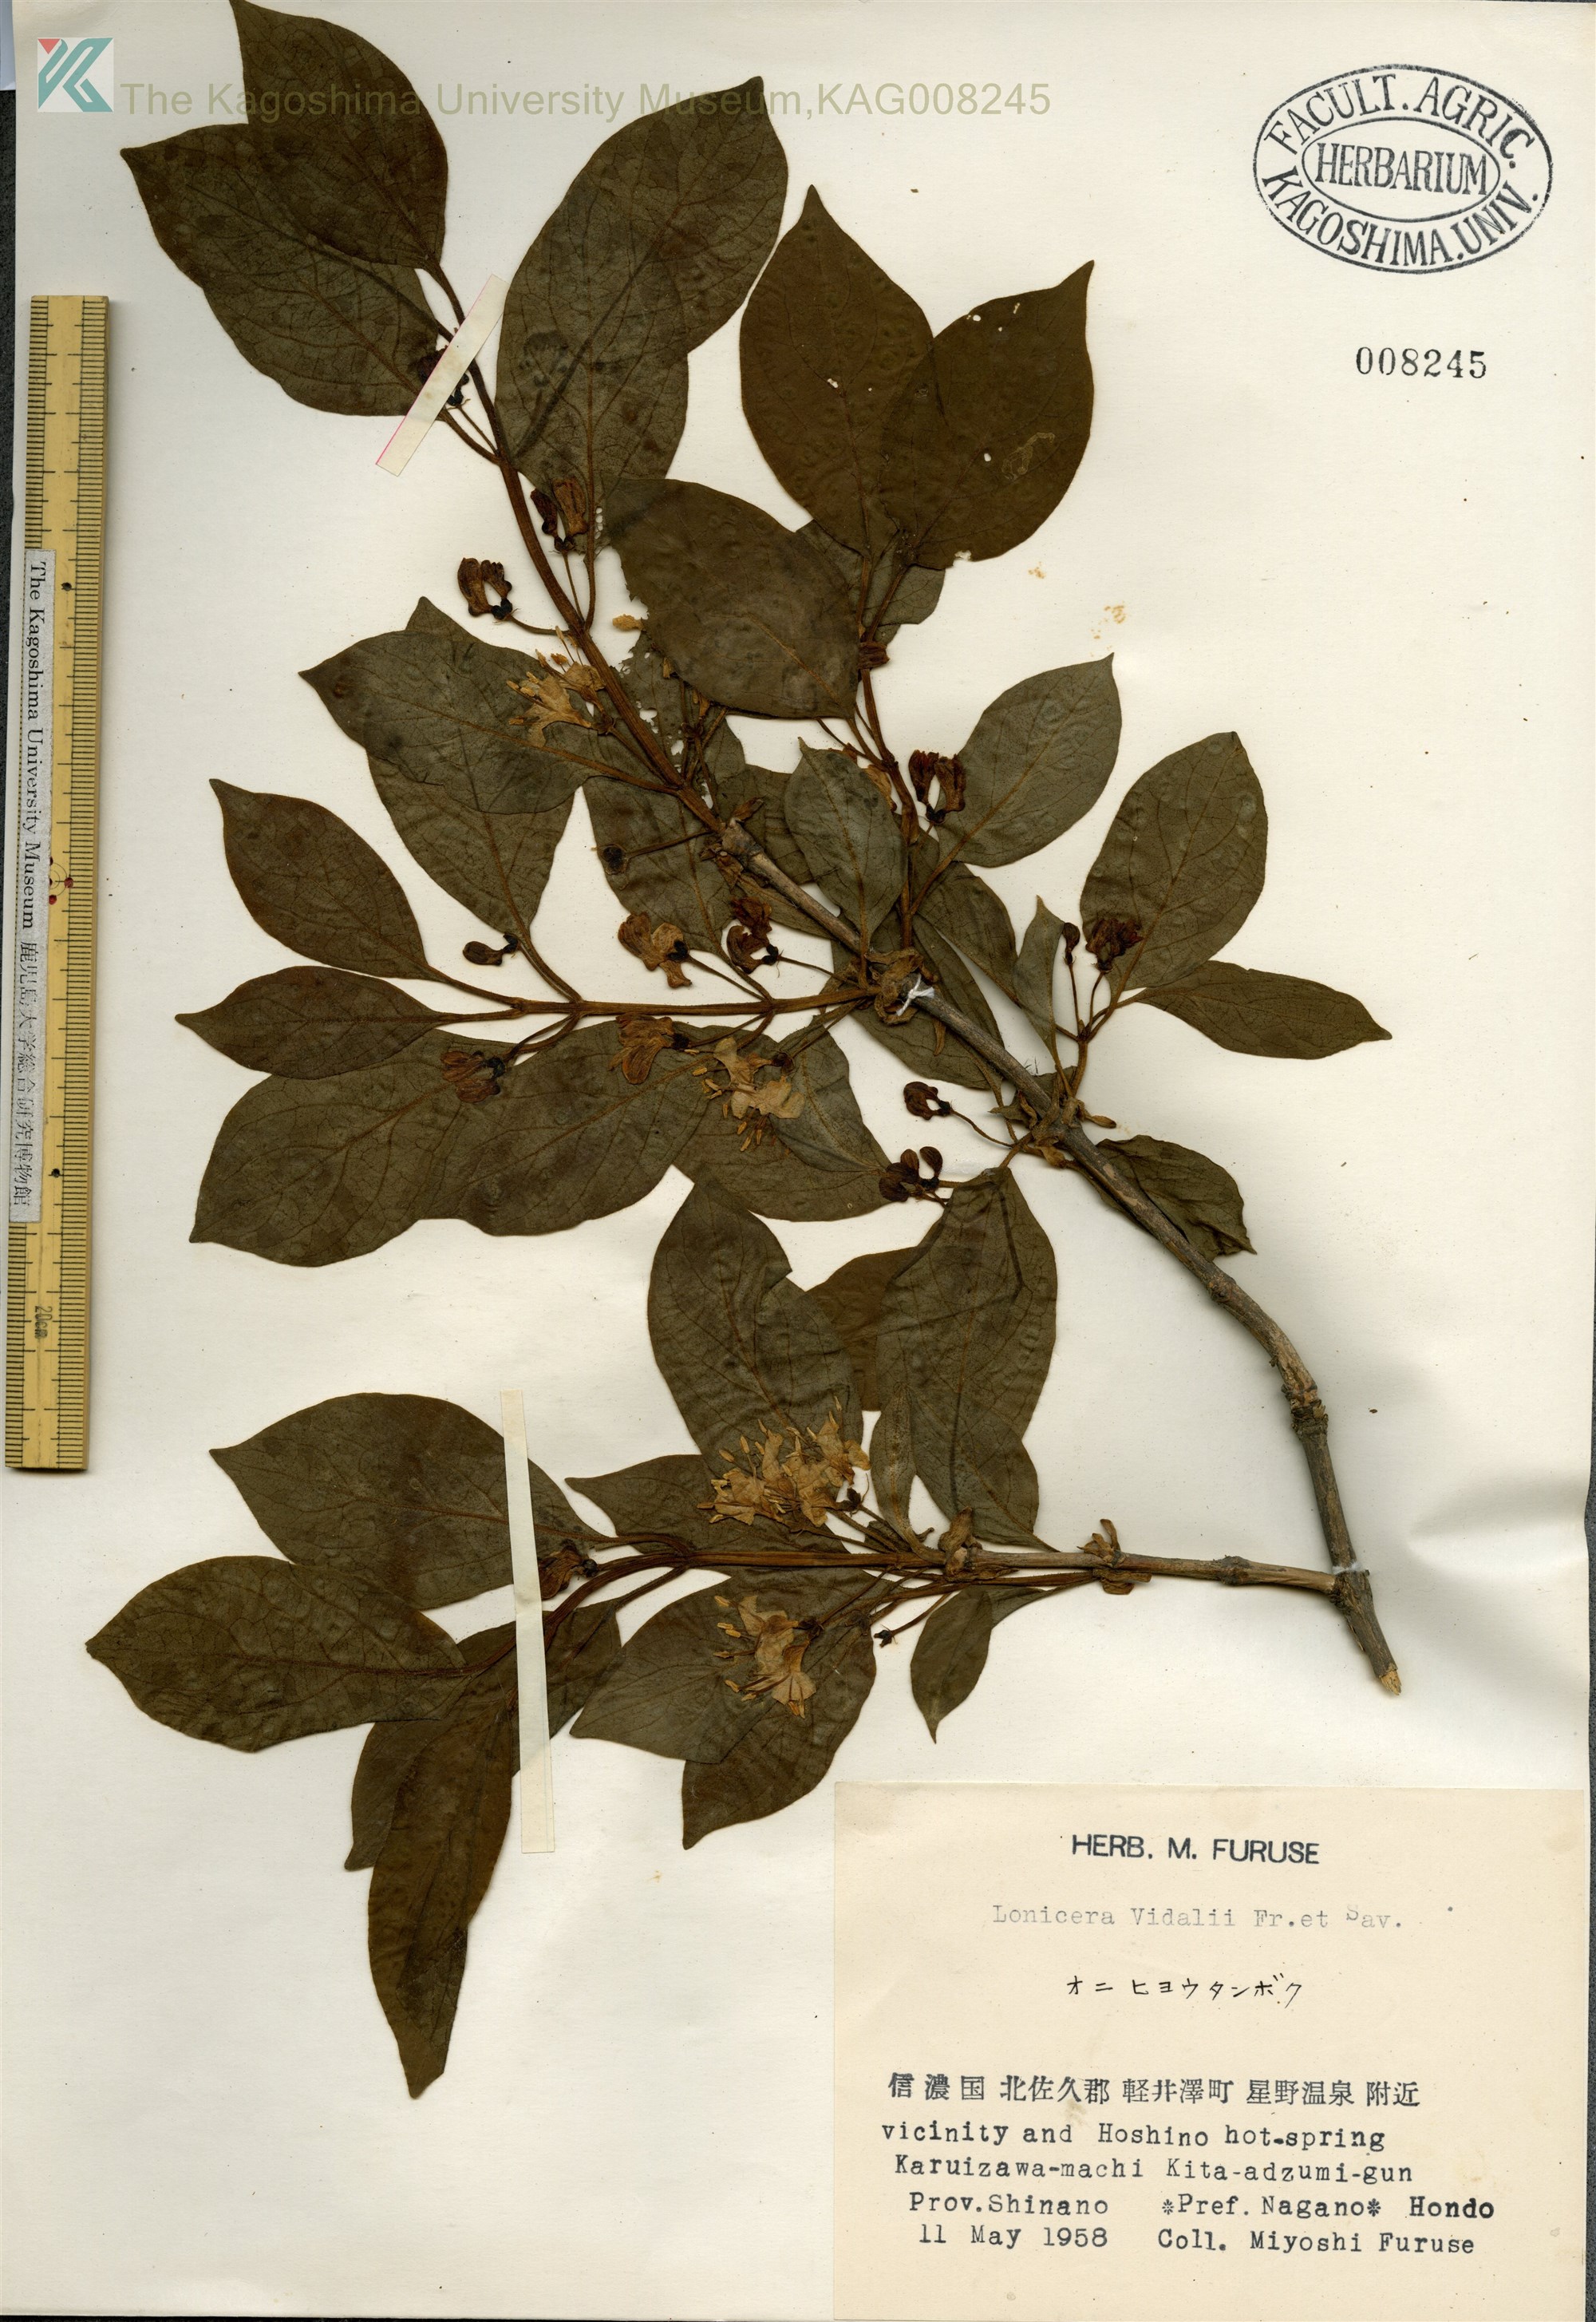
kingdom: Plantae
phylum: Tracheophyta
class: Magnoliopsida
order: Dipsacales
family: Caprifoliaceae
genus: Lonicera
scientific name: Lonicera vidalii
